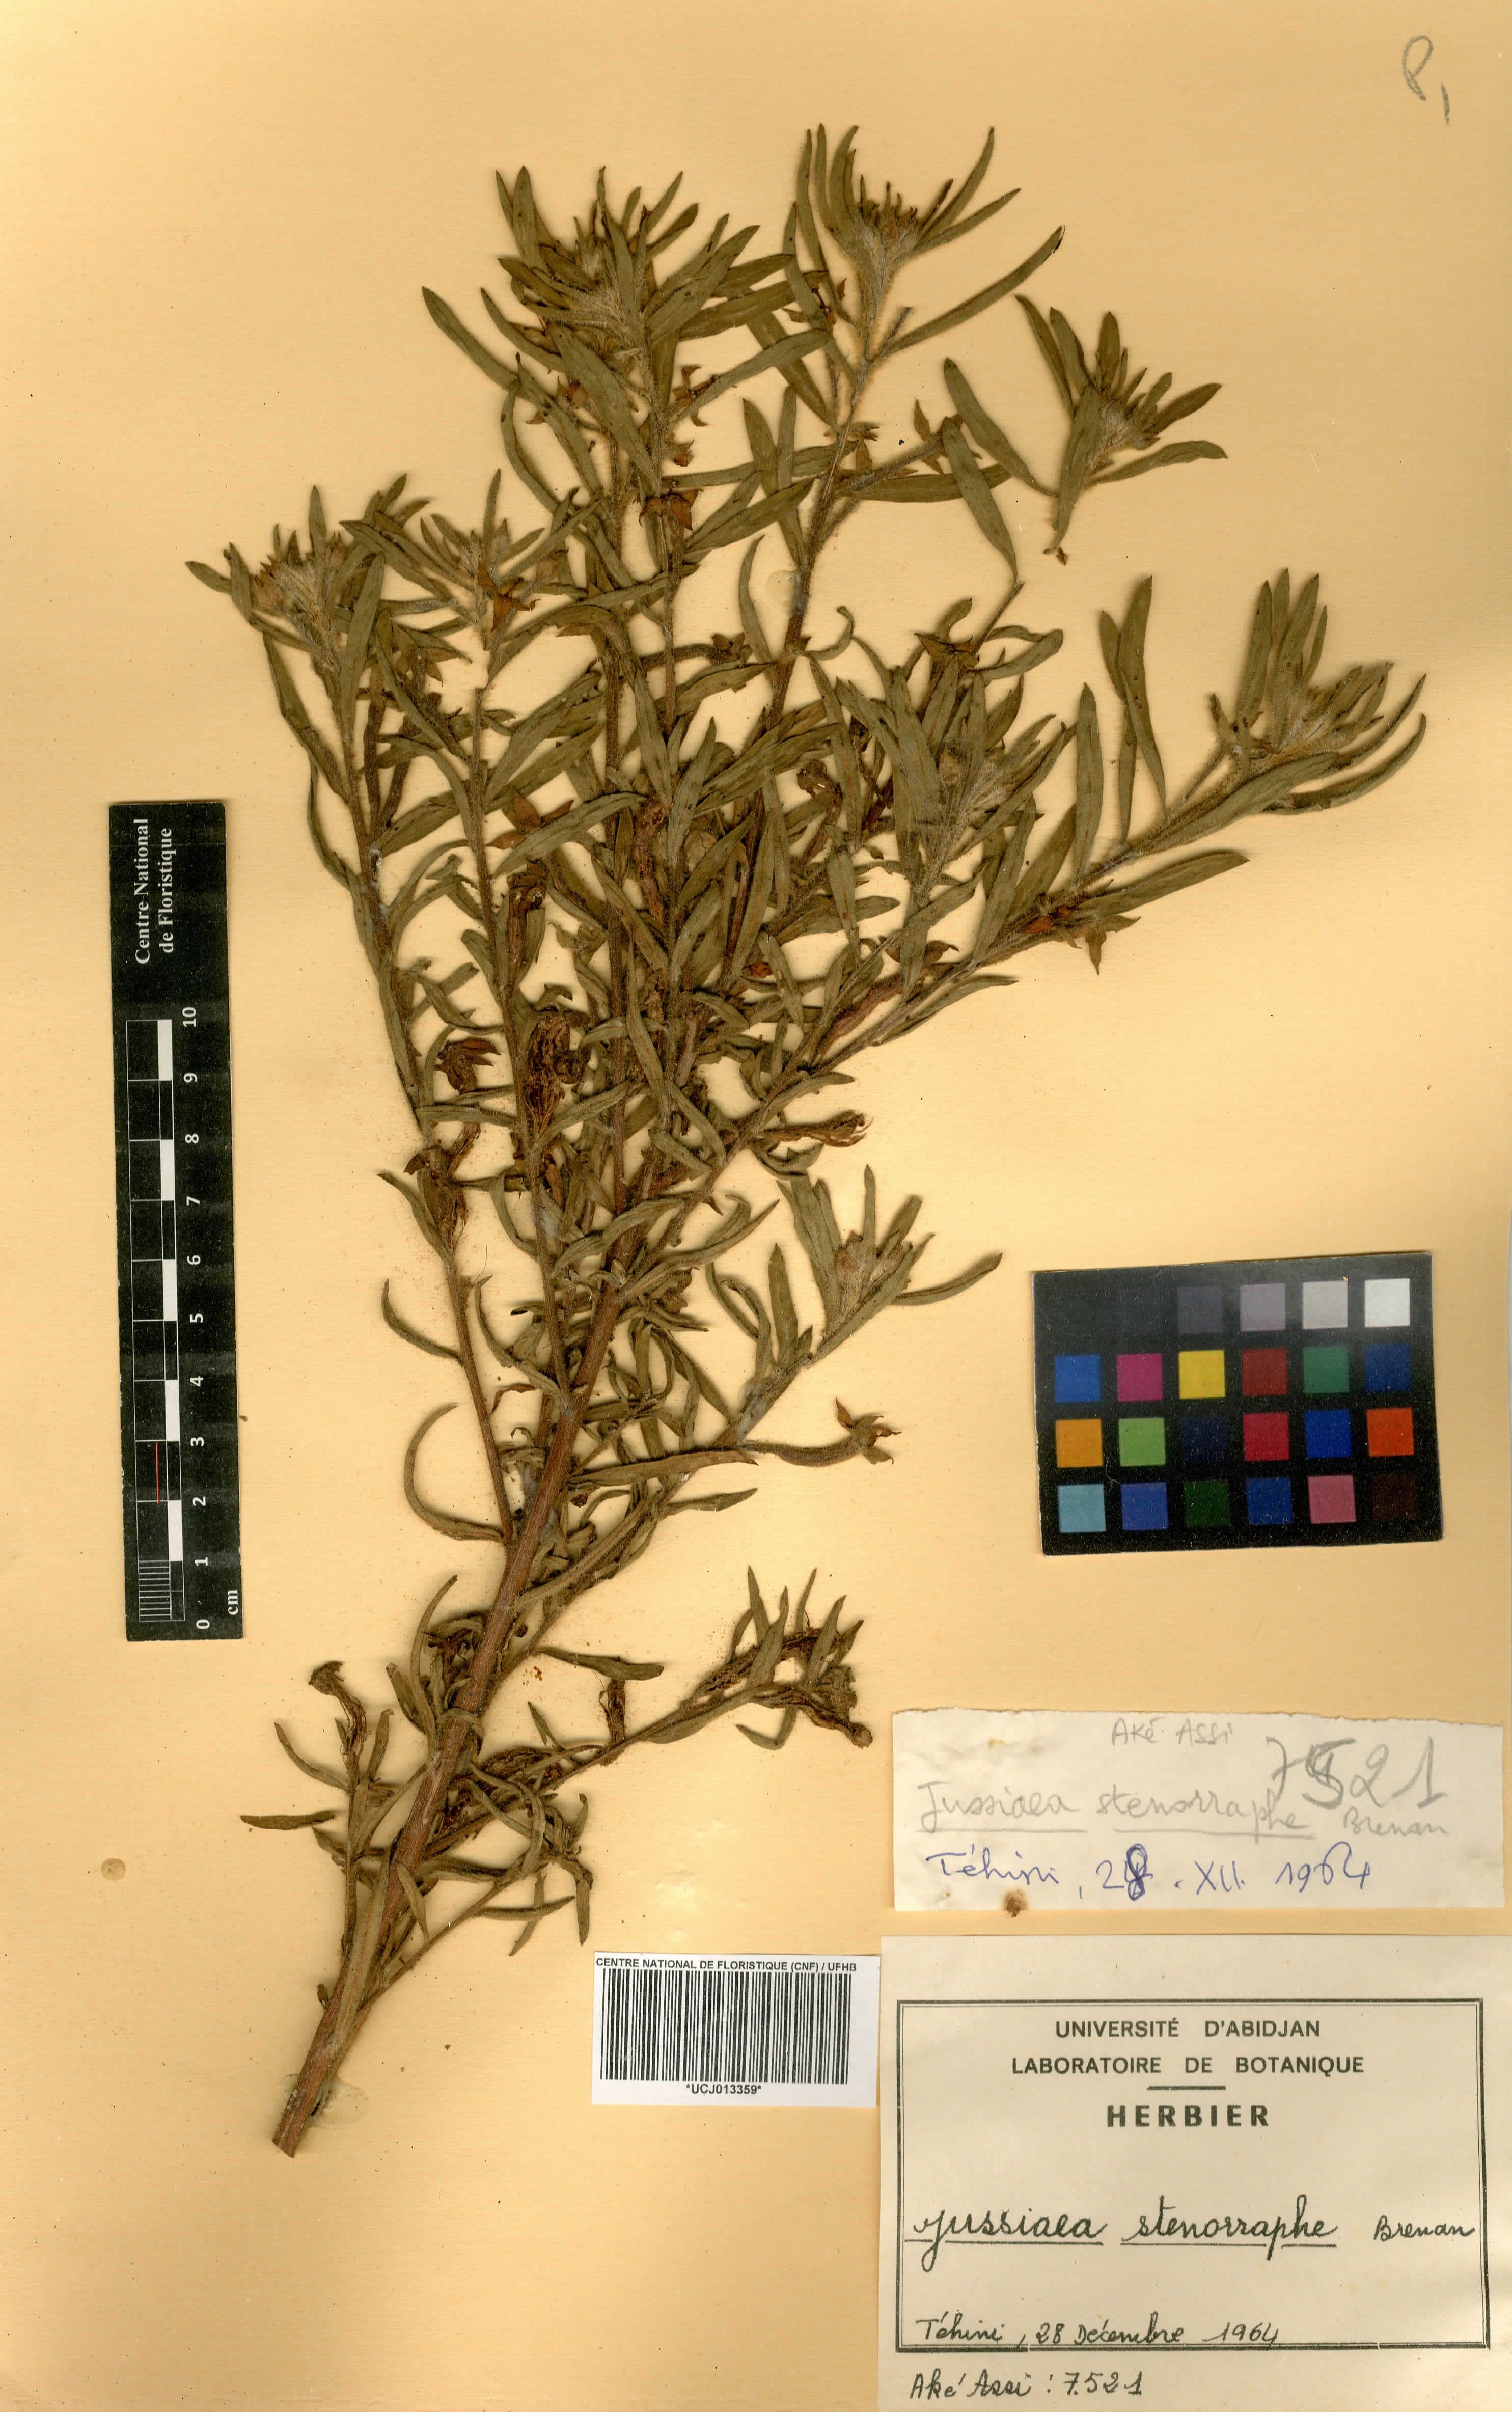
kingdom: Plantae
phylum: Tracheophyta
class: Magnoliopsida
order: Myrtales
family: Onagraceae
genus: Ludwigia
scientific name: Ludwigia stenorraphe
